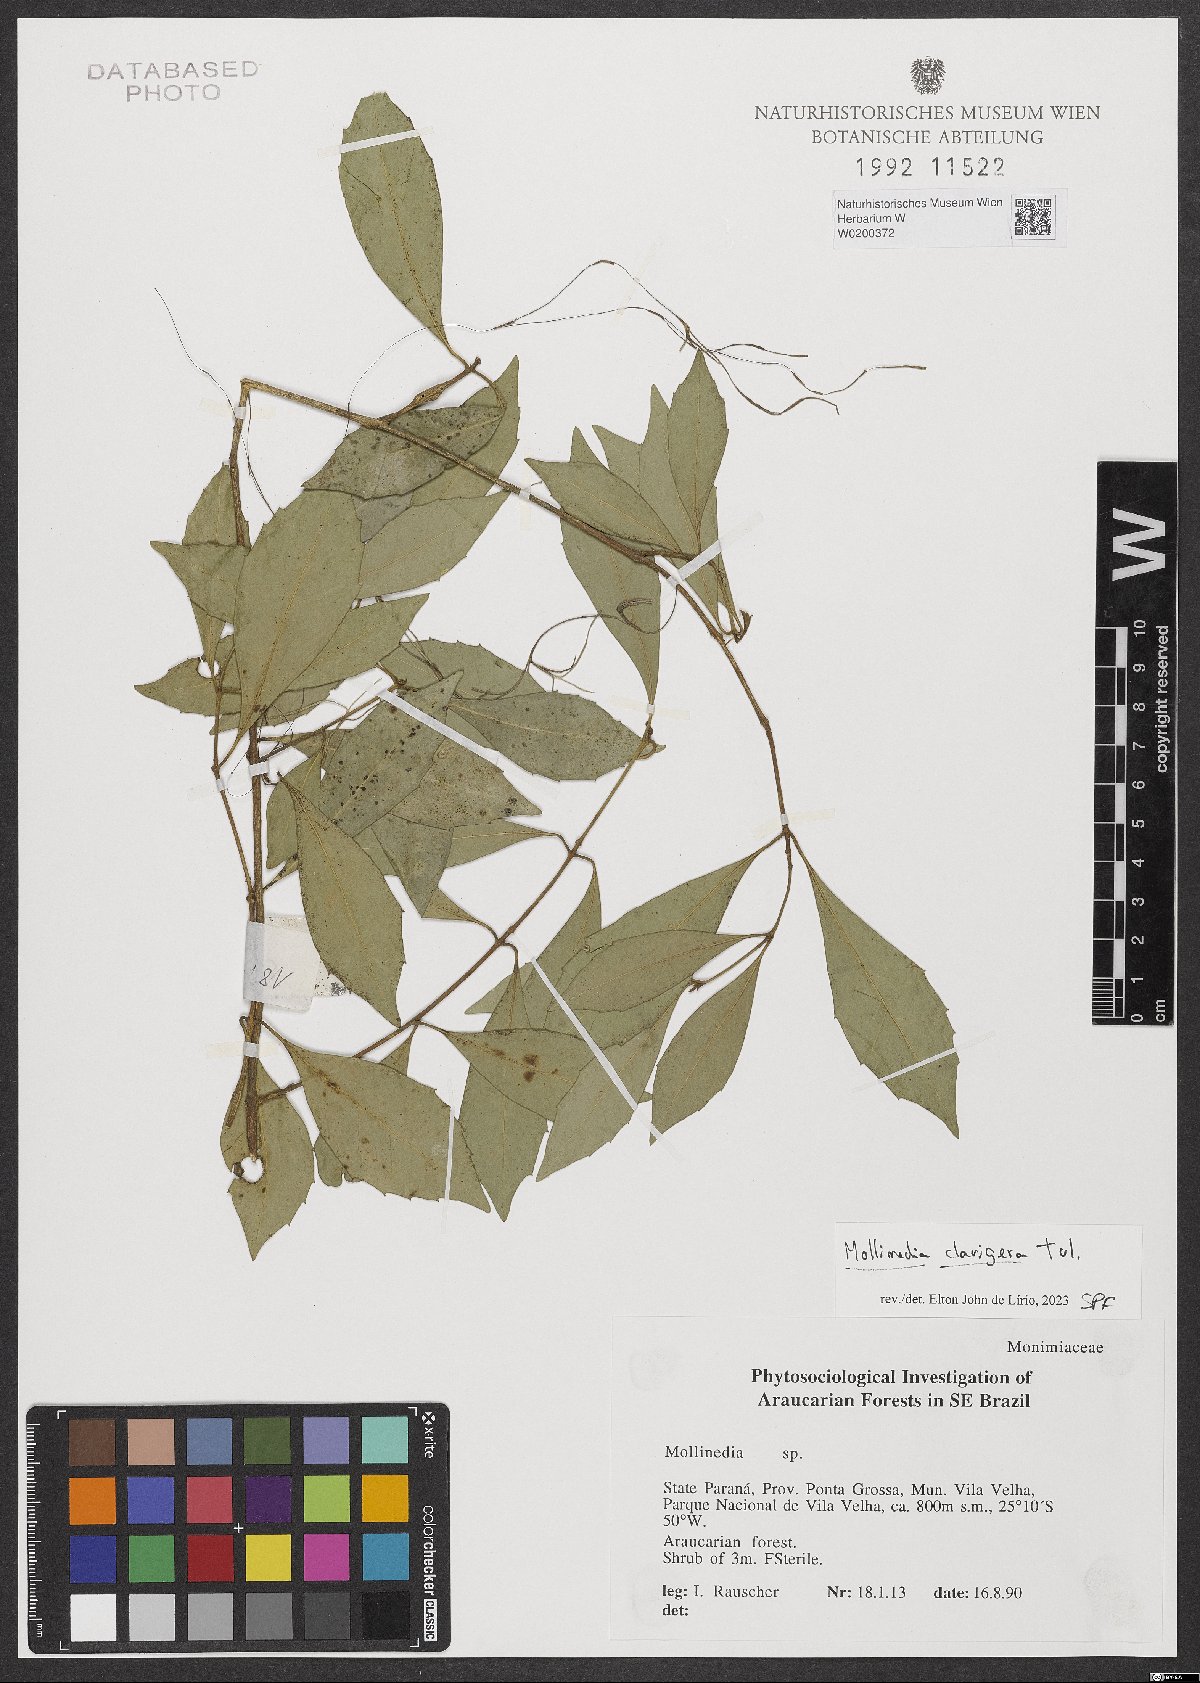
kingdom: Plantae
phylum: Tracheophyta
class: Magnoliopsida
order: Laurales
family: Monimiaceae
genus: Mollinedia
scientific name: Mollinedia clavigera
